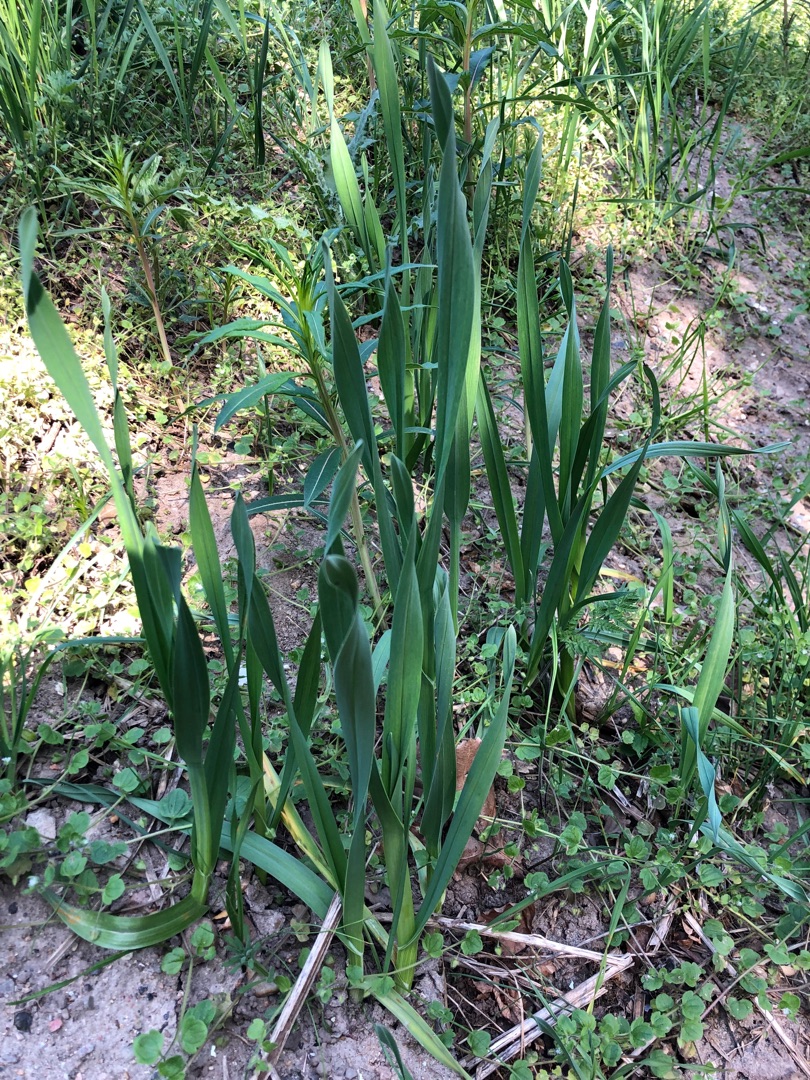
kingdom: Plantae
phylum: Tracheophyta
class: Liliopsida
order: Asparagales
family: Amaryllidaceae
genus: Allium
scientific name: Allium scorodoprasum
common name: Skov-løg
